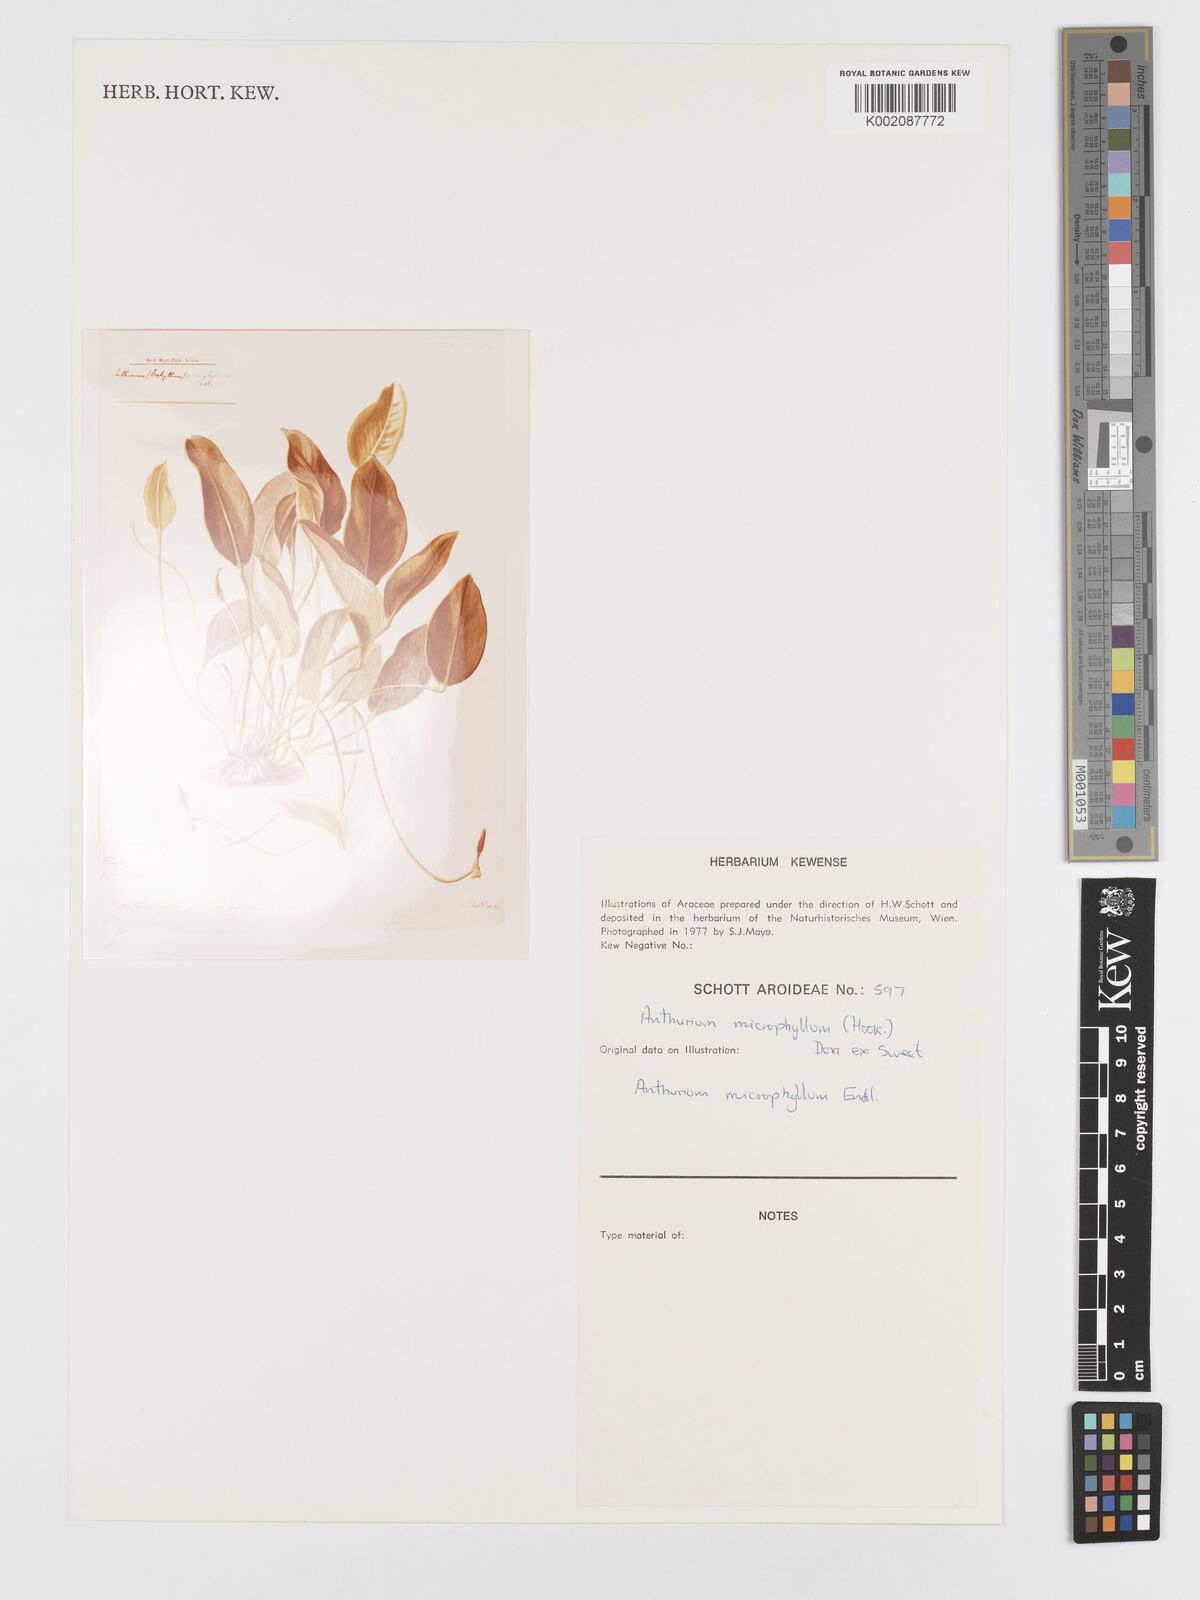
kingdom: Plantae
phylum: Tracheophyta
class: Liliopsida
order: Alismatales
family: Araceae
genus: Anthurium
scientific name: Anthurium microphyllum
